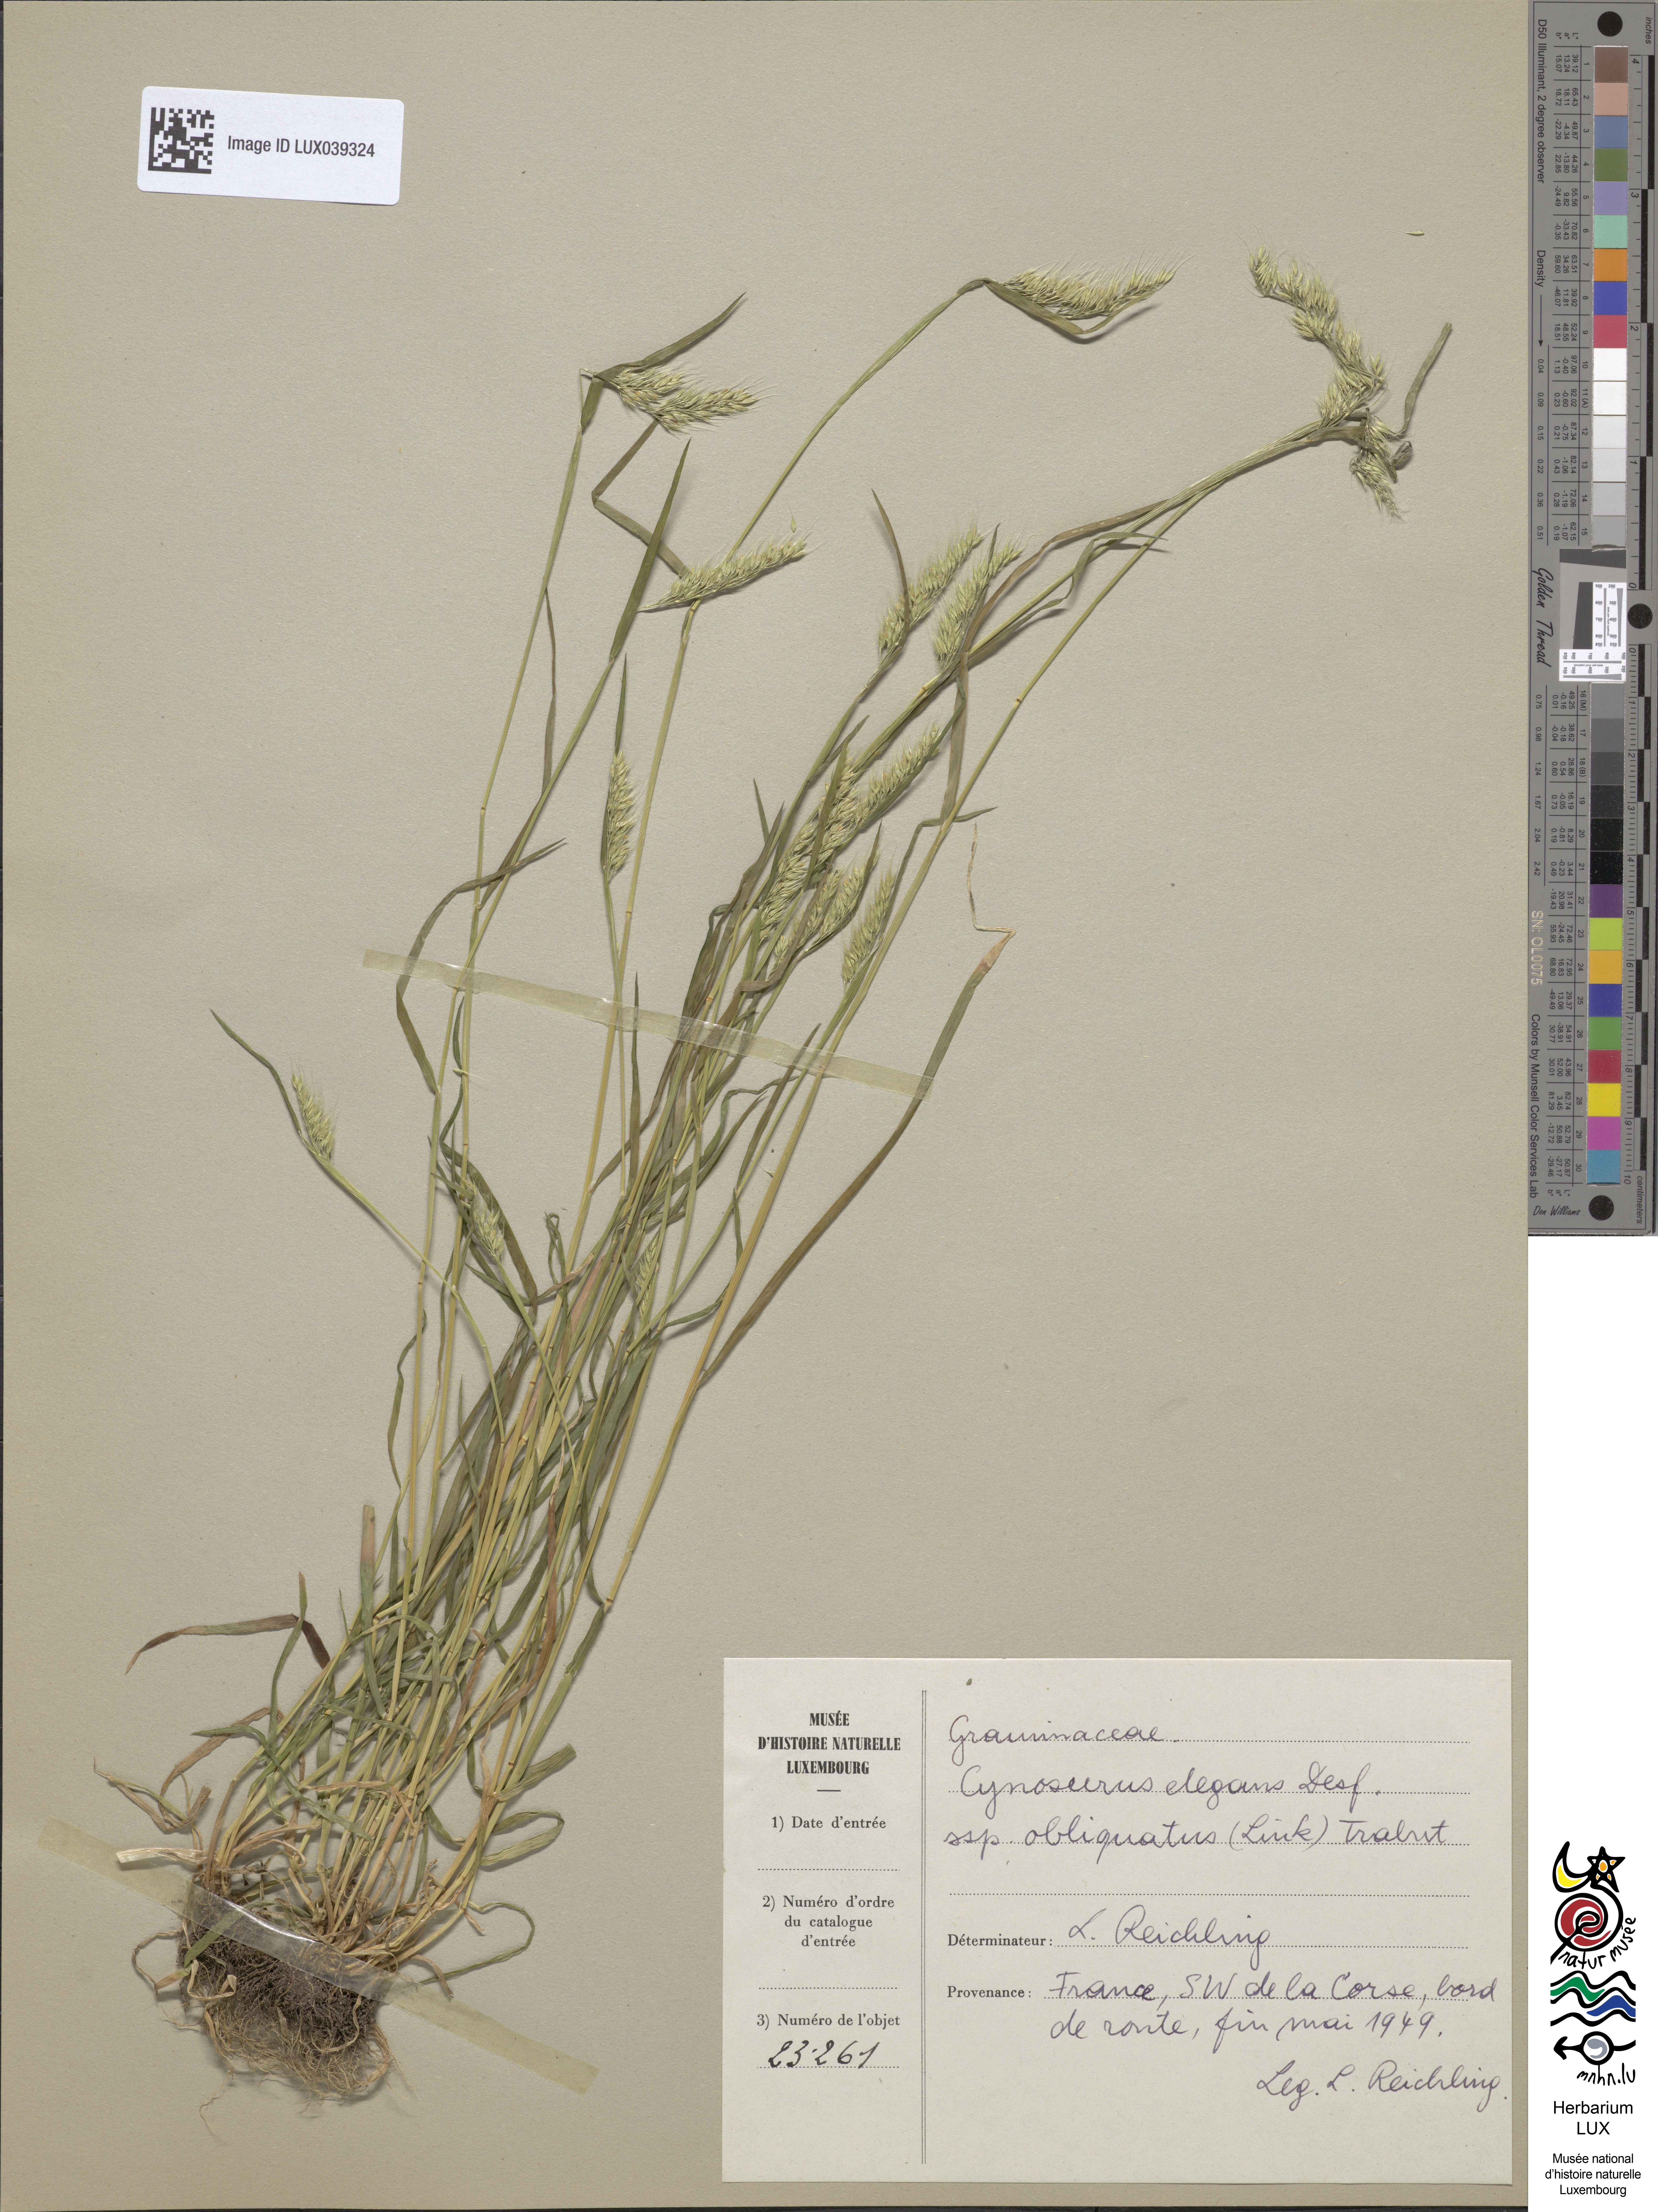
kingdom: Plantae
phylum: Tracheophyta
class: Liliopsida
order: Poales
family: Poaceae
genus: Cynosurus
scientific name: Cynosurus effusus
